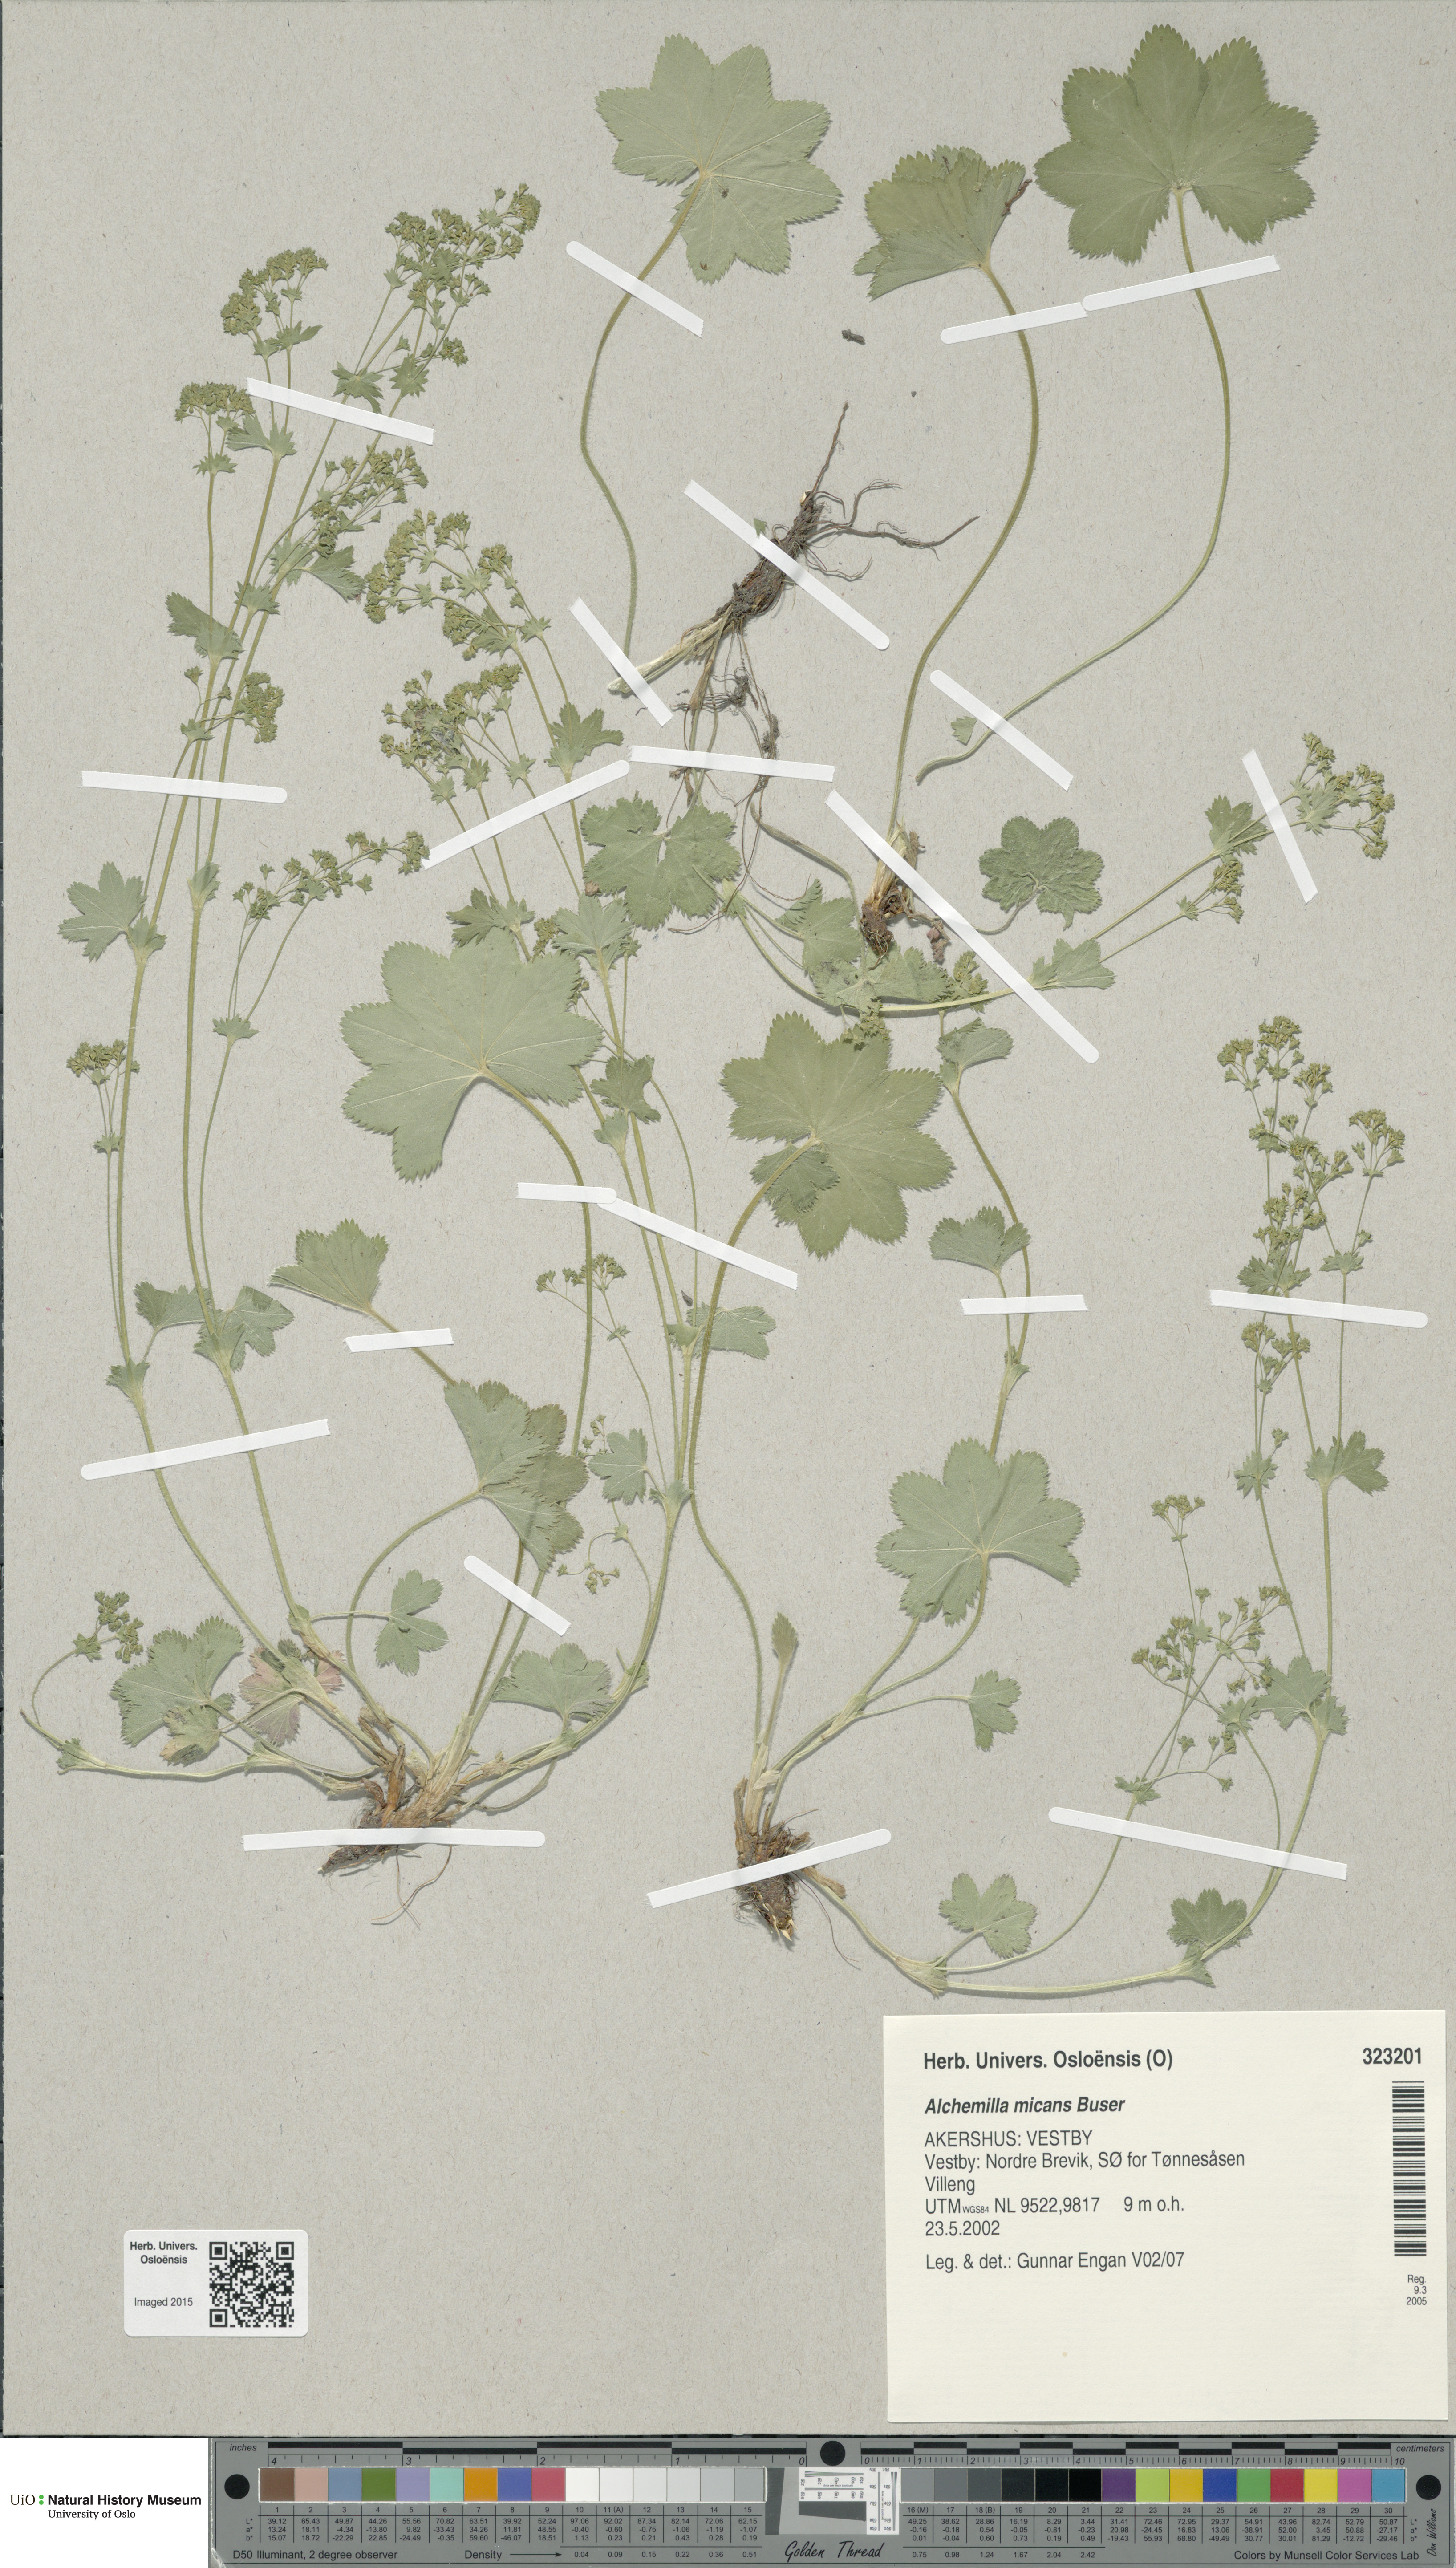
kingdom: Plantae
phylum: Tracheophyta
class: Magnoliopsida
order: Rosales
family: Rosaceae
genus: Alchemilla
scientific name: Alchemilla micans
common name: Gleaming lady's mantle
